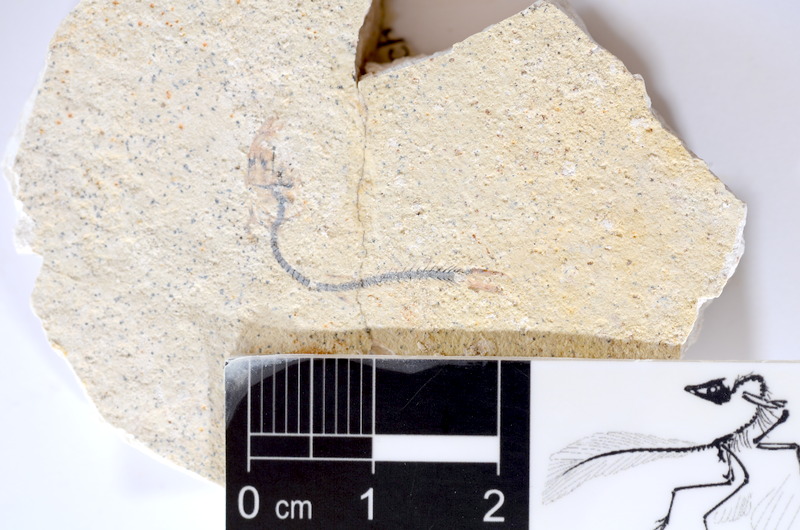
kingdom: Animalia
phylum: Chordata
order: Salmoniformes
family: Orthogonikleithridae
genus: Orthogonikleithrus
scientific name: Orthogonikleithrus hoelli
